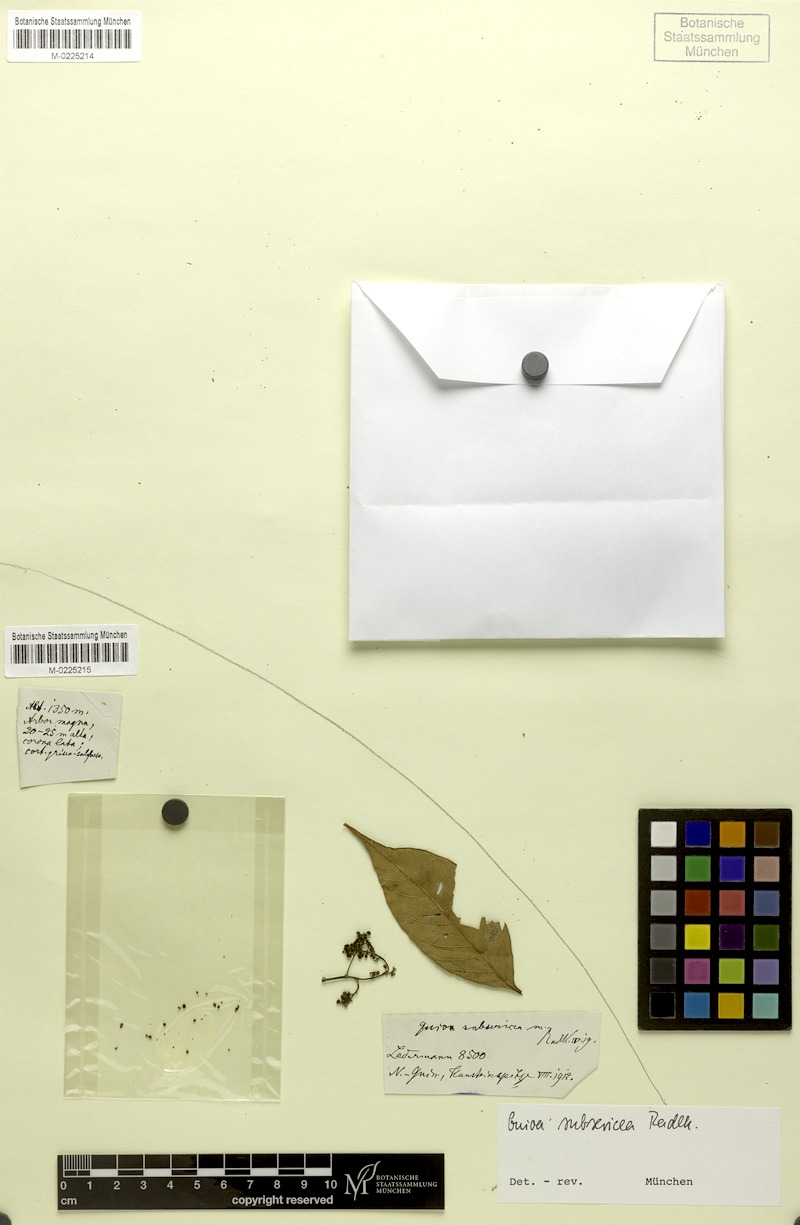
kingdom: Plantae
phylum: Tracheophyta
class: Magnoliopsida
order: Sapindales
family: Sapindaceae
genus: Guioa
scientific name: Guioa subsericea
